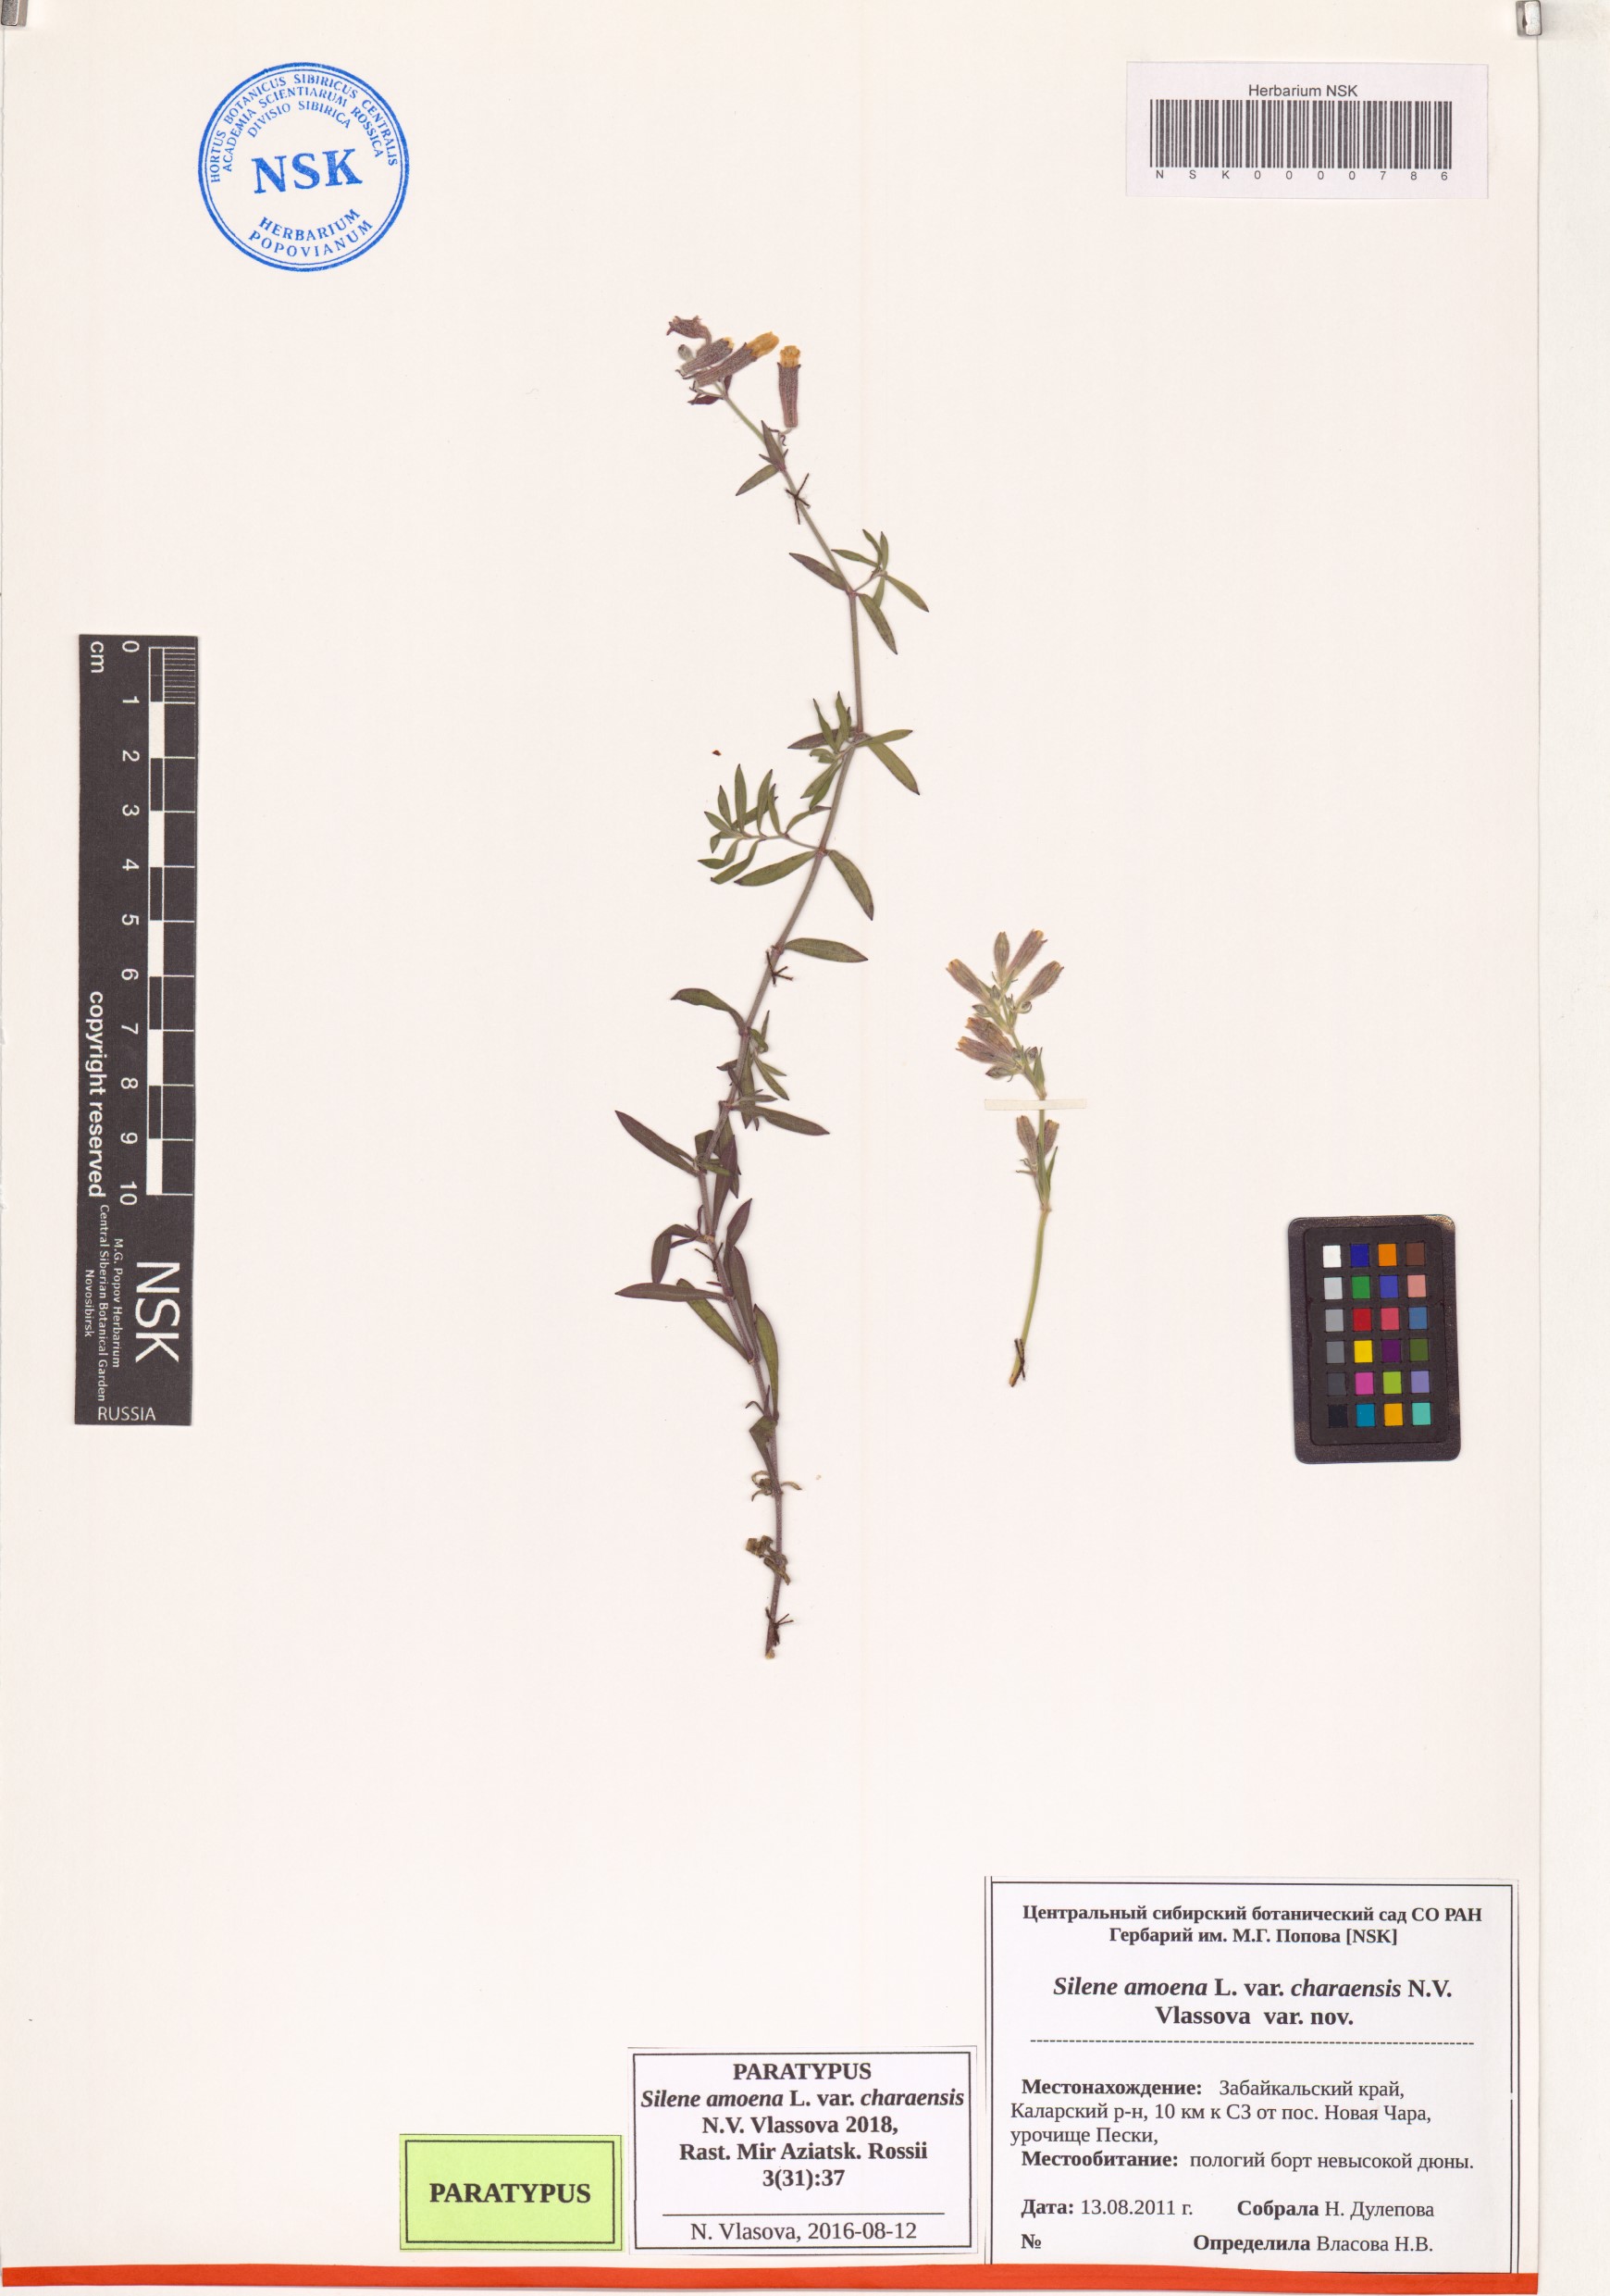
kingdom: Plantae
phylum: Tracheophyta
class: Magnoliopsida
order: Caryophyllales
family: Caryophyllaceae
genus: Silene
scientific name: Silene amoena
